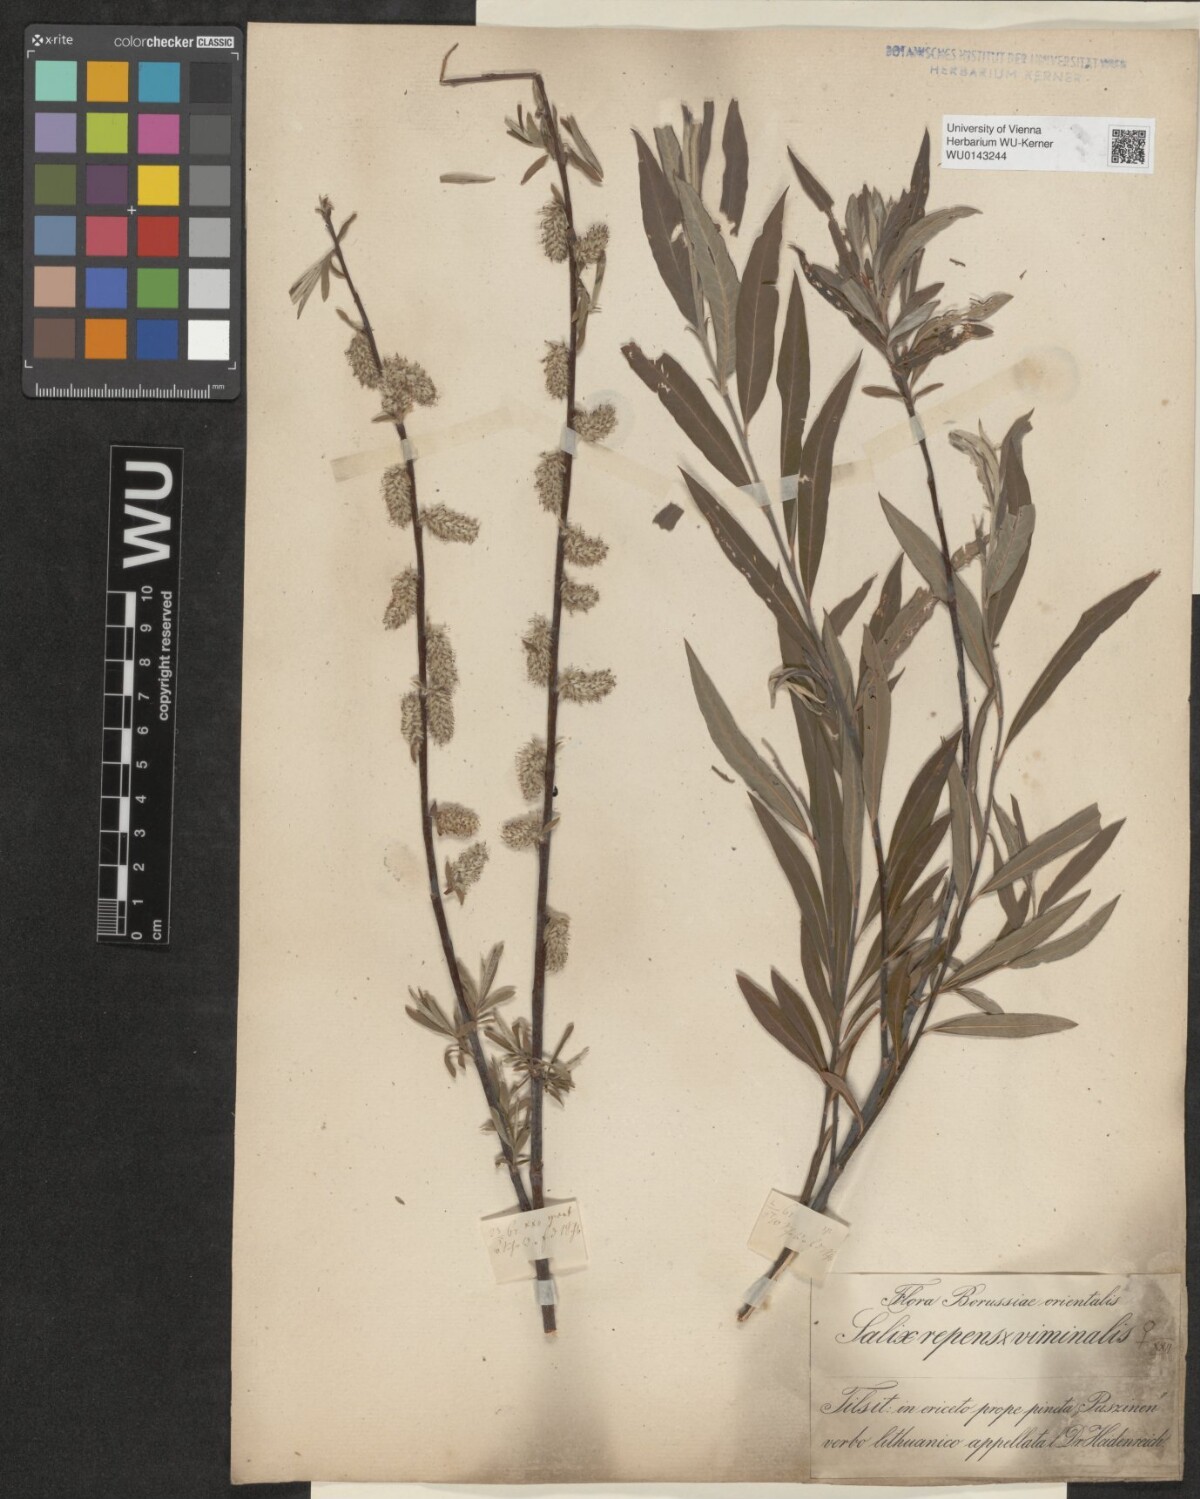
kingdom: Plantae
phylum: Tracheophyta
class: Magnoliopsida
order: Malpighiales
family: Salicaceae
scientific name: Salicaceae
